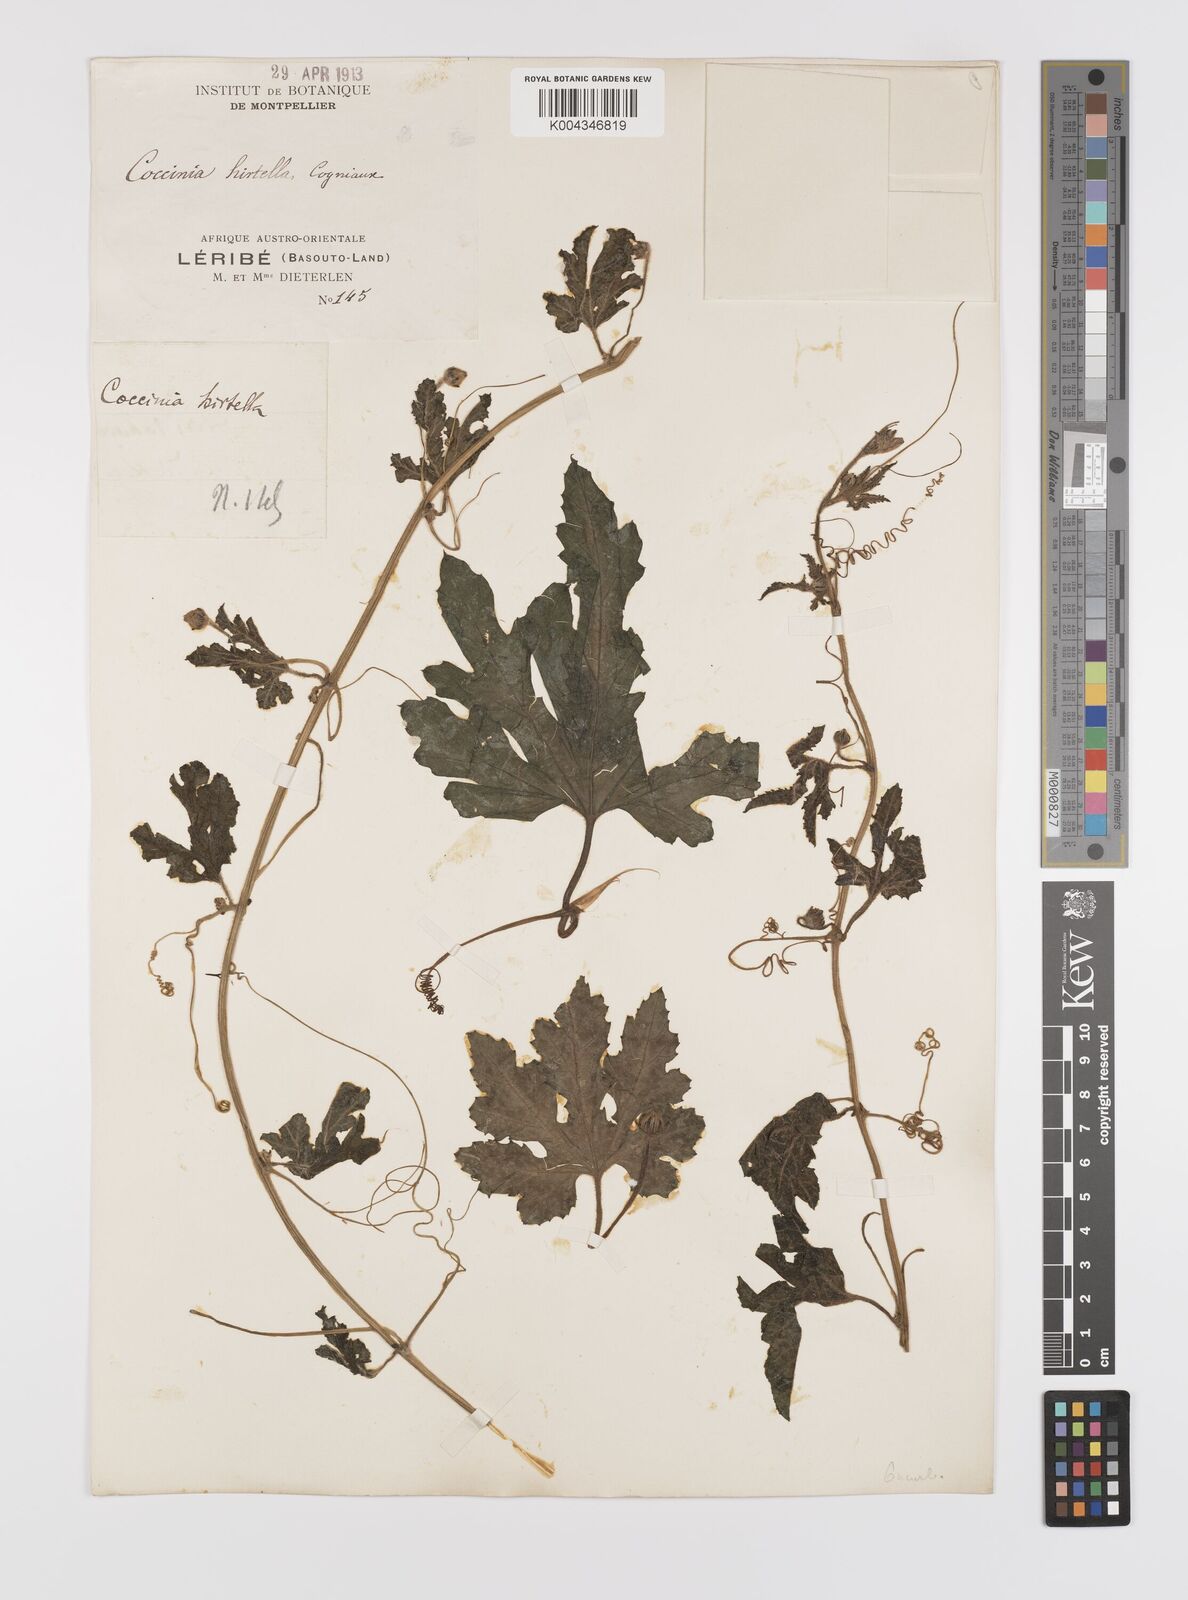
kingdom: Plantae
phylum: Tracheophyta
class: Magnoliopsida
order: Cucurbitales
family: Cucurbitaceae
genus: Coccinia
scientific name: Coccinia hirtella
